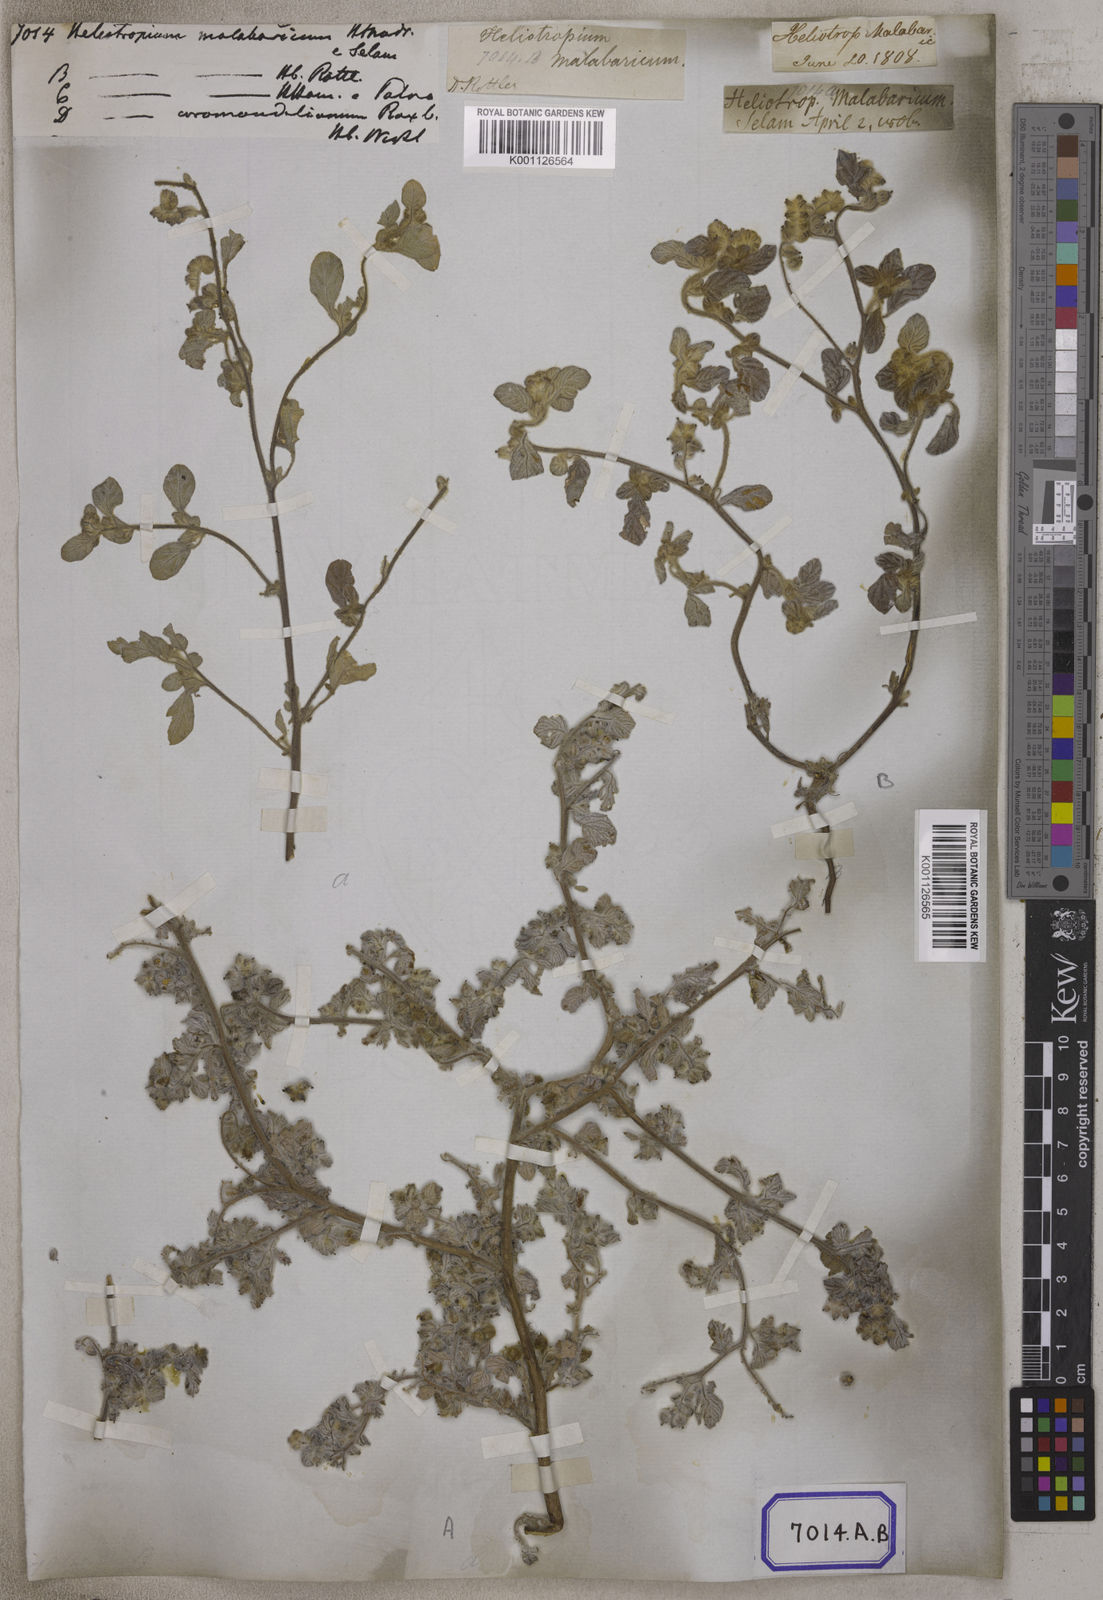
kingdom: Plantae
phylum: Tracheophyta
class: Magnoliopsida
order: Boraginales
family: Heliotropiaceae
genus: Heliotropium
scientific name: Heliotropium supinum
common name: Dwarf heliotrope
